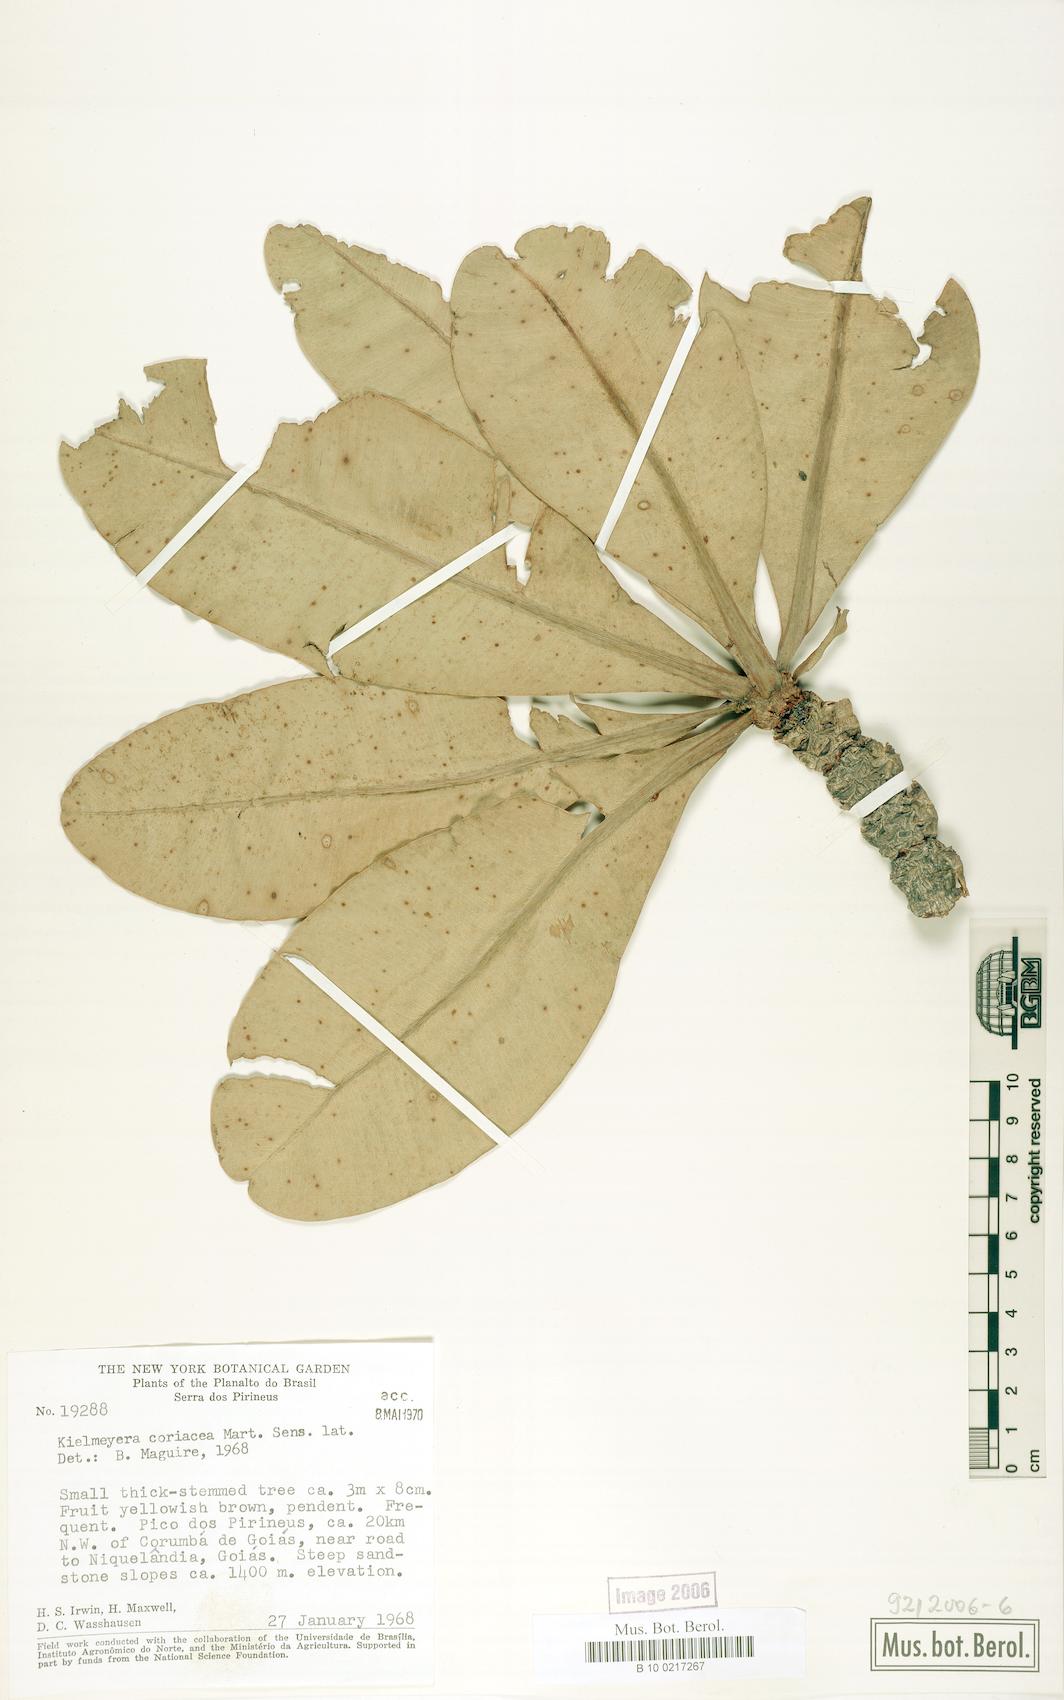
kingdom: Plantae
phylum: Tracheophyta
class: Magnoliopsida
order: Malpighiales
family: Calophyllaceae
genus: Kielmeyera
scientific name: Kielmeyera coriacea
